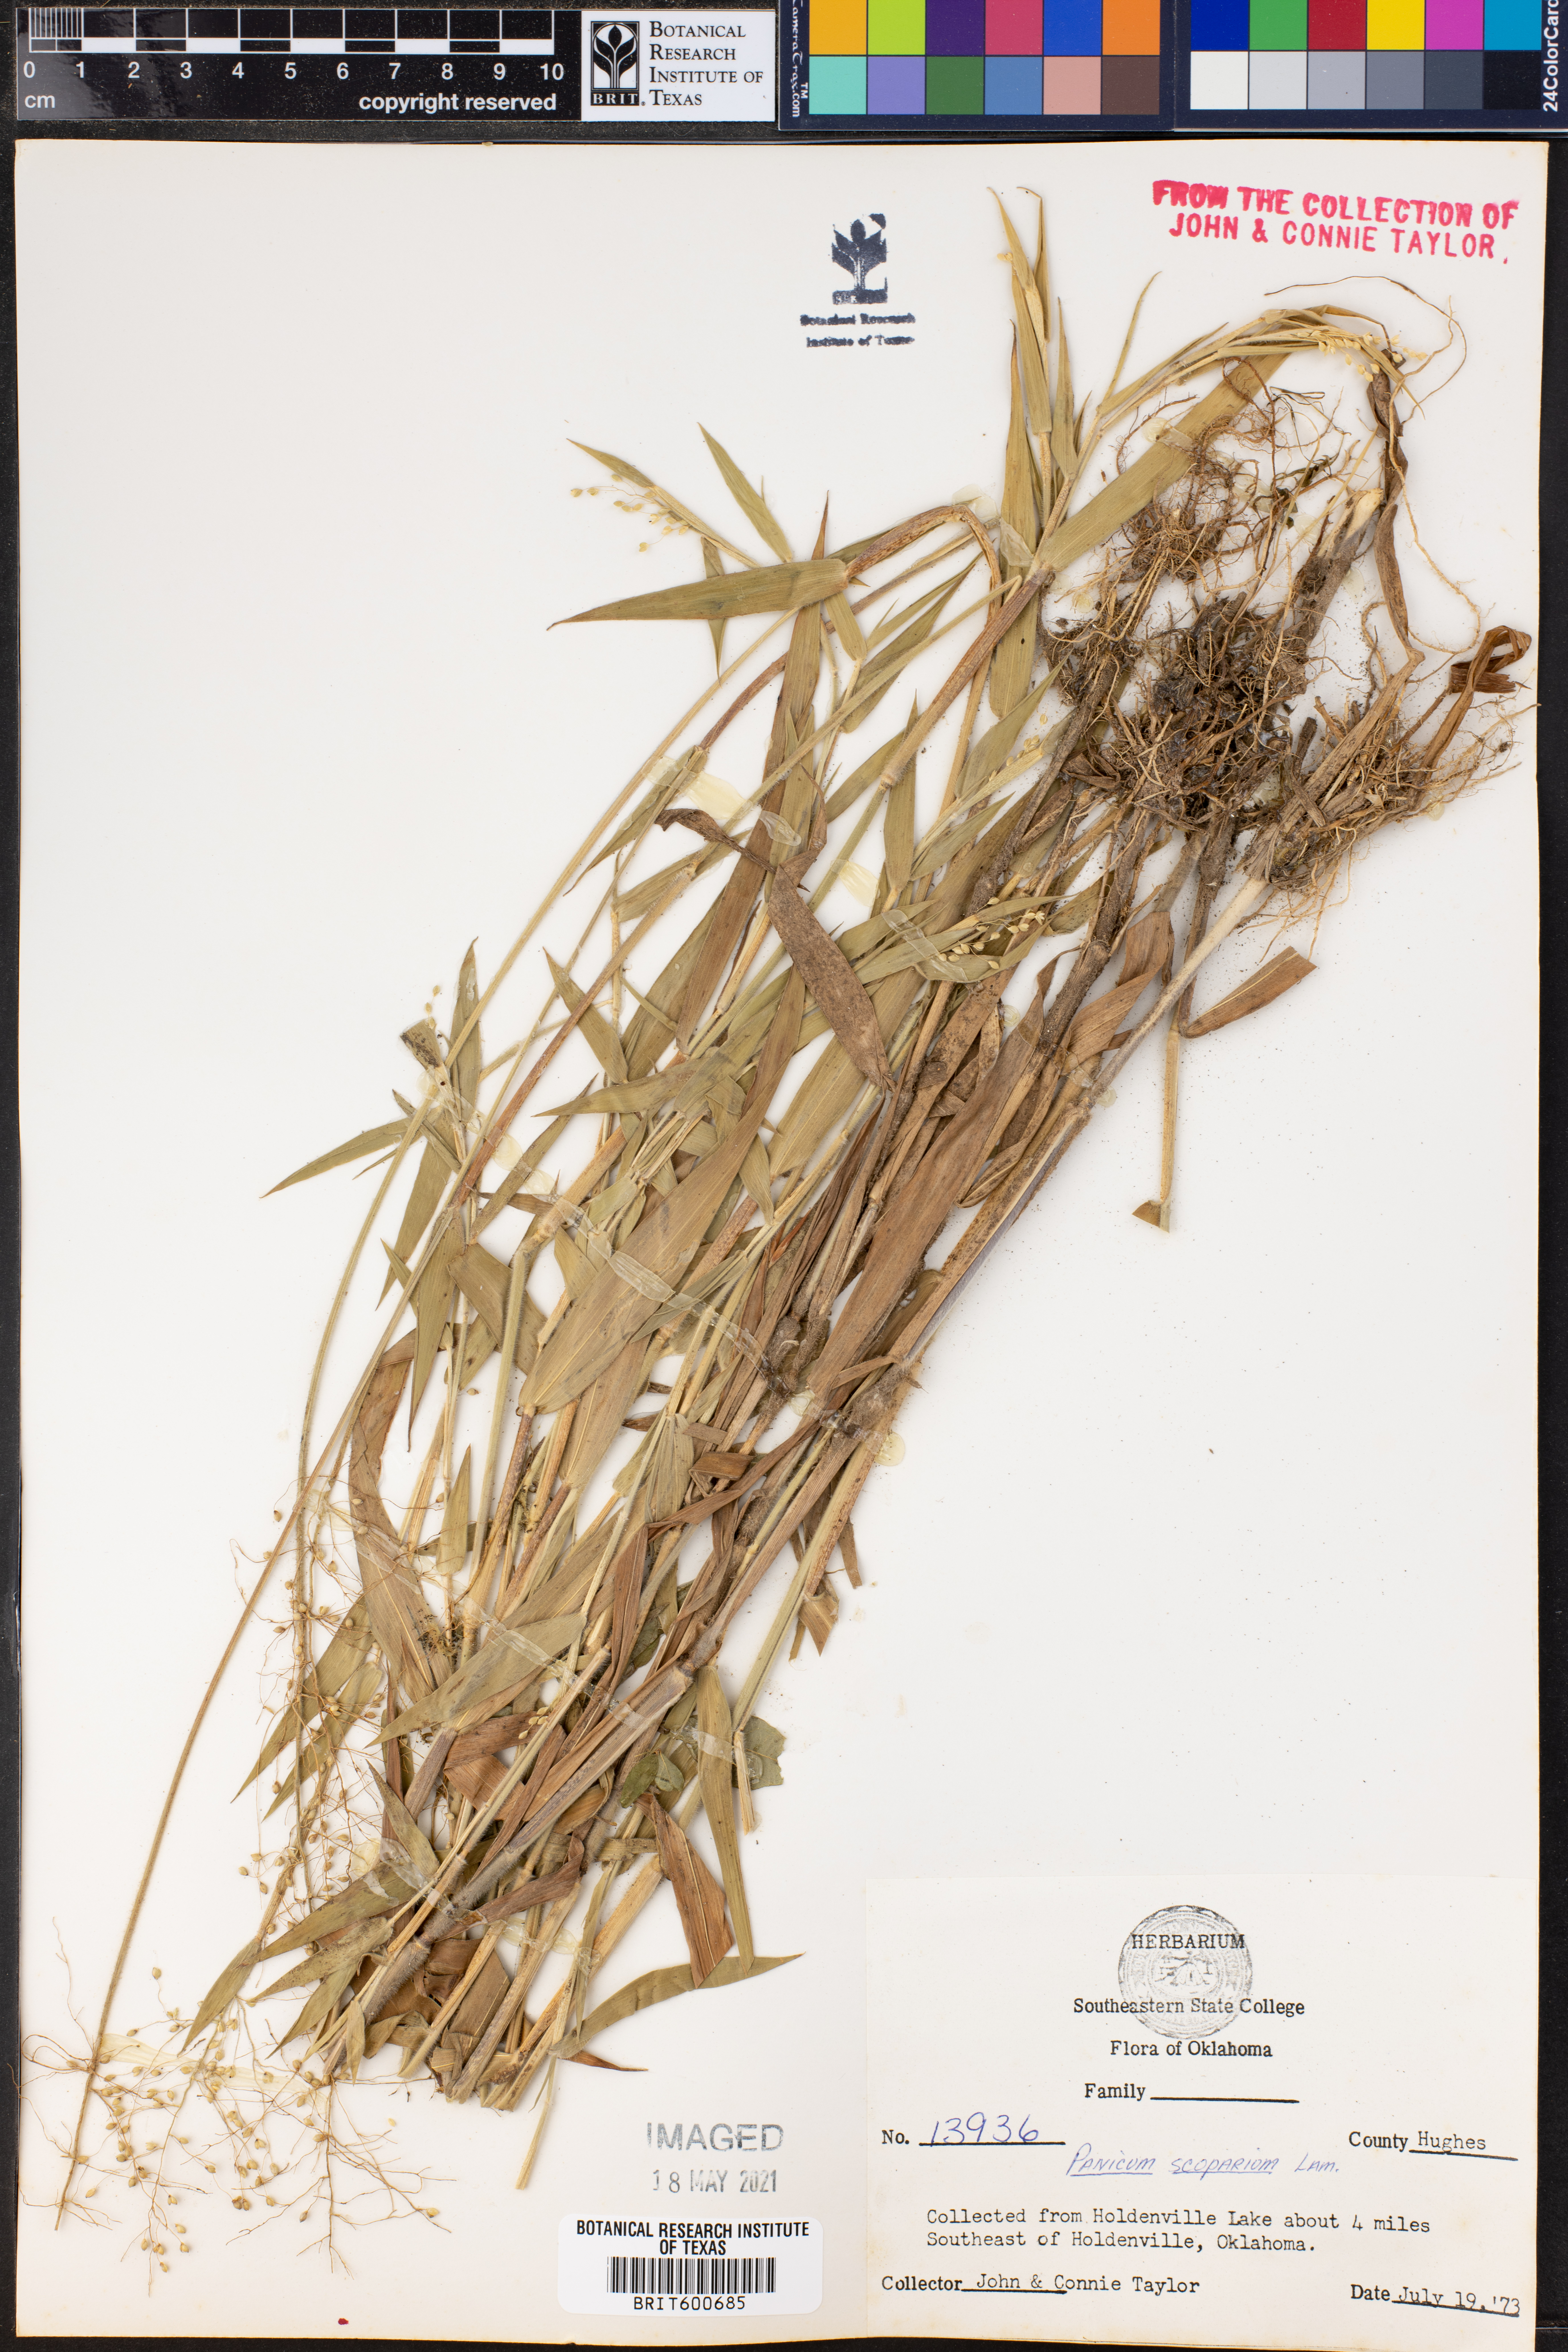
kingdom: Plantae
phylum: Tracheophyta
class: Liliopsida
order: Poales
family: Poaceae
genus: Dichanthelium
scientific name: Dichanthelium scribnerianum
